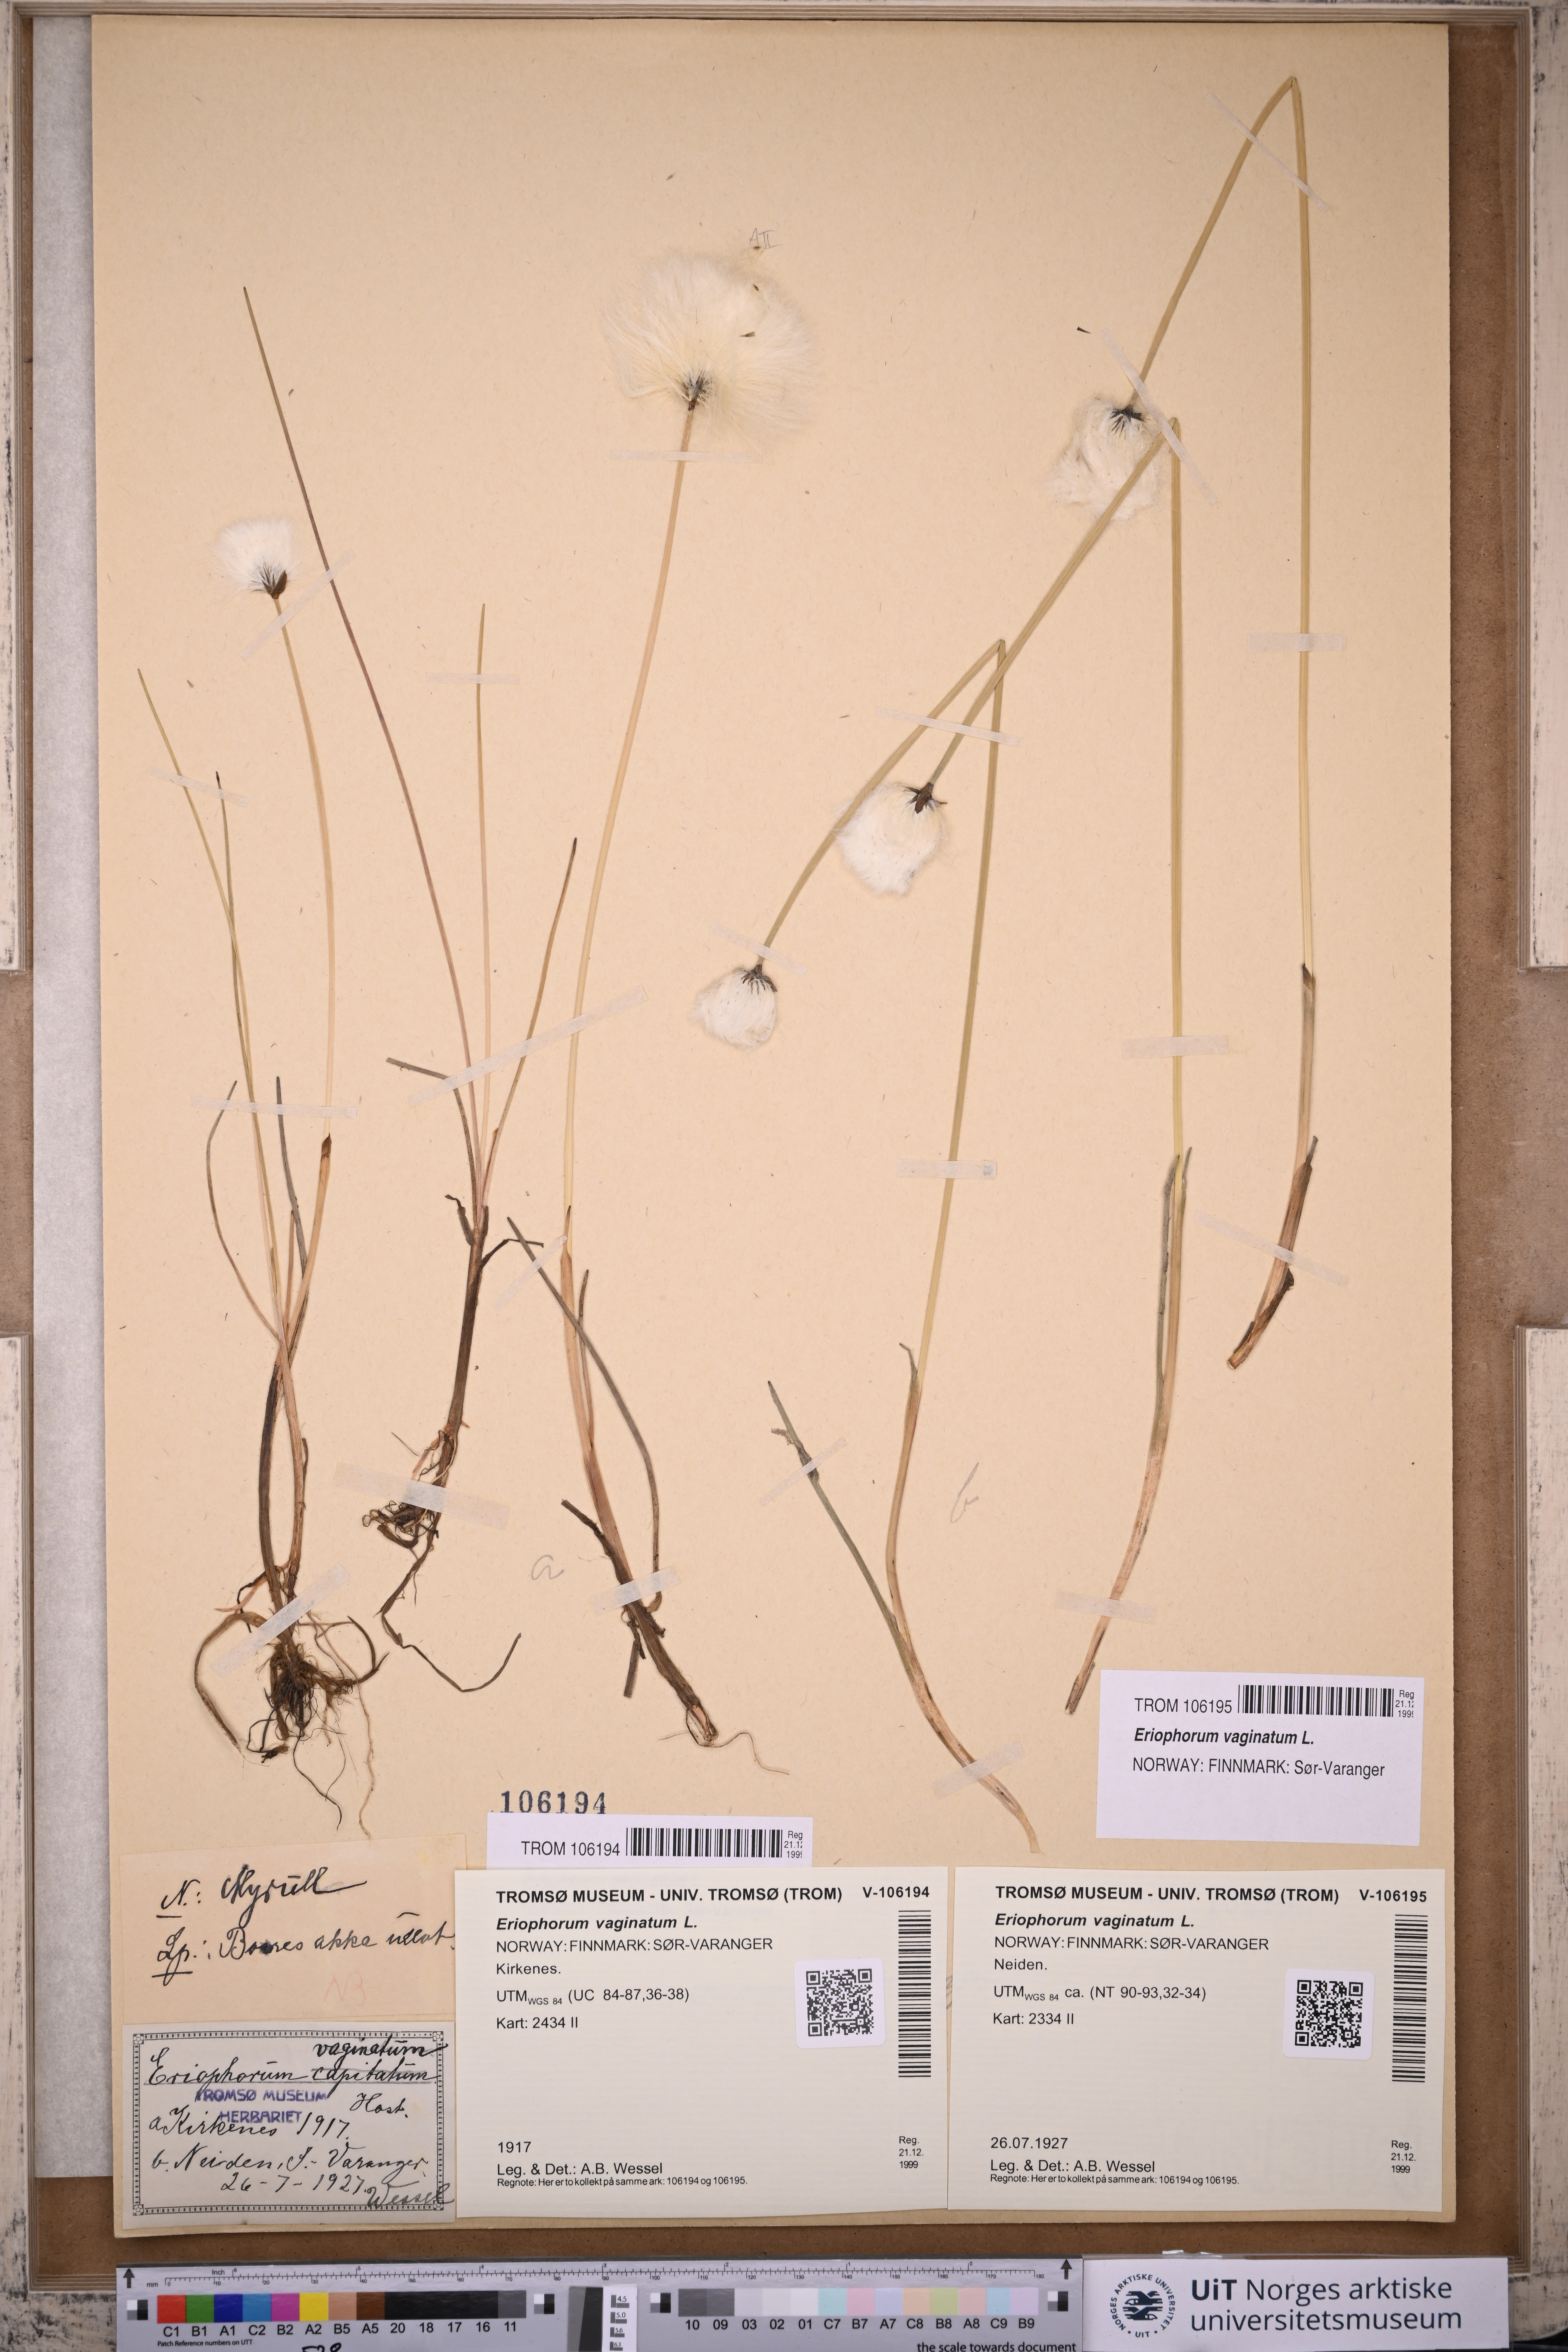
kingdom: Plantae
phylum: Tracheophyta
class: Liliopsida
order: Poales
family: Cyperaceae
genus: Eriophorum
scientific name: Eriophorum vaginatum
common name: Hare's-tail cottongrass
